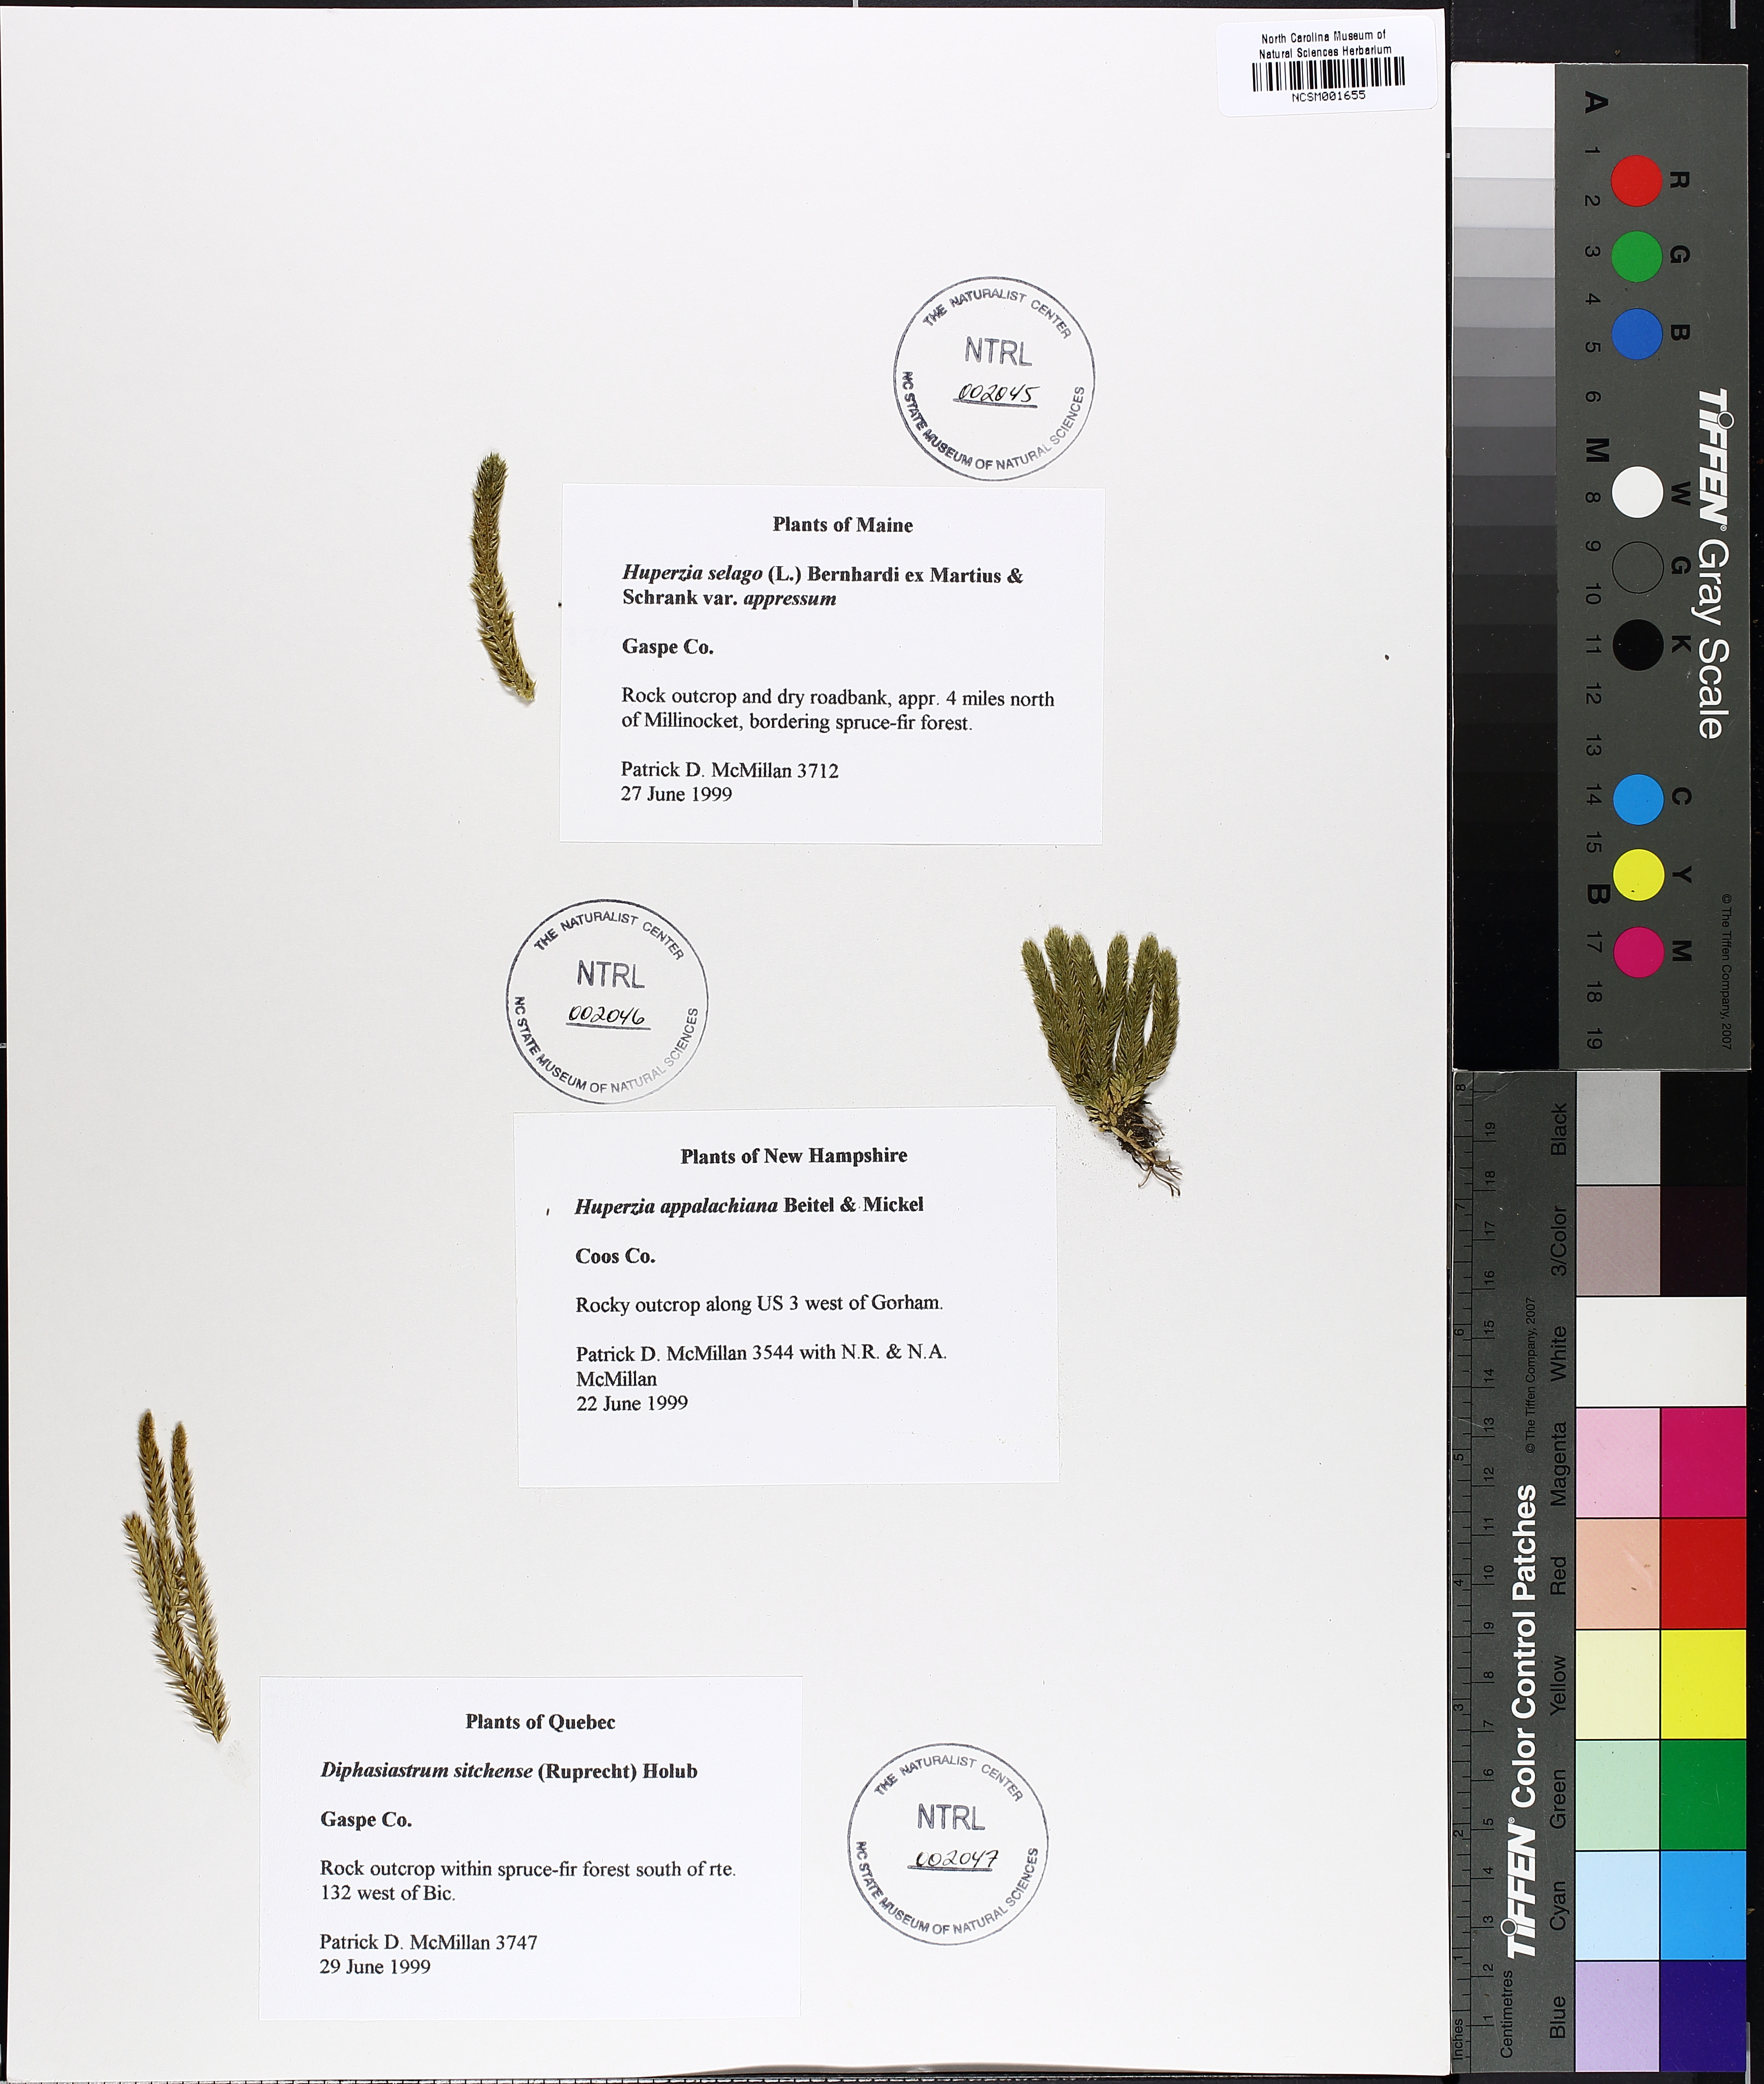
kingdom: Plantae
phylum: Tracheophyta
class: Lycopodiopsida
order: Lycopodiales
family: Lycopodiaceae
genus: Huperzia
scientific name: Huperzia selago
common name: Northern firmoss
